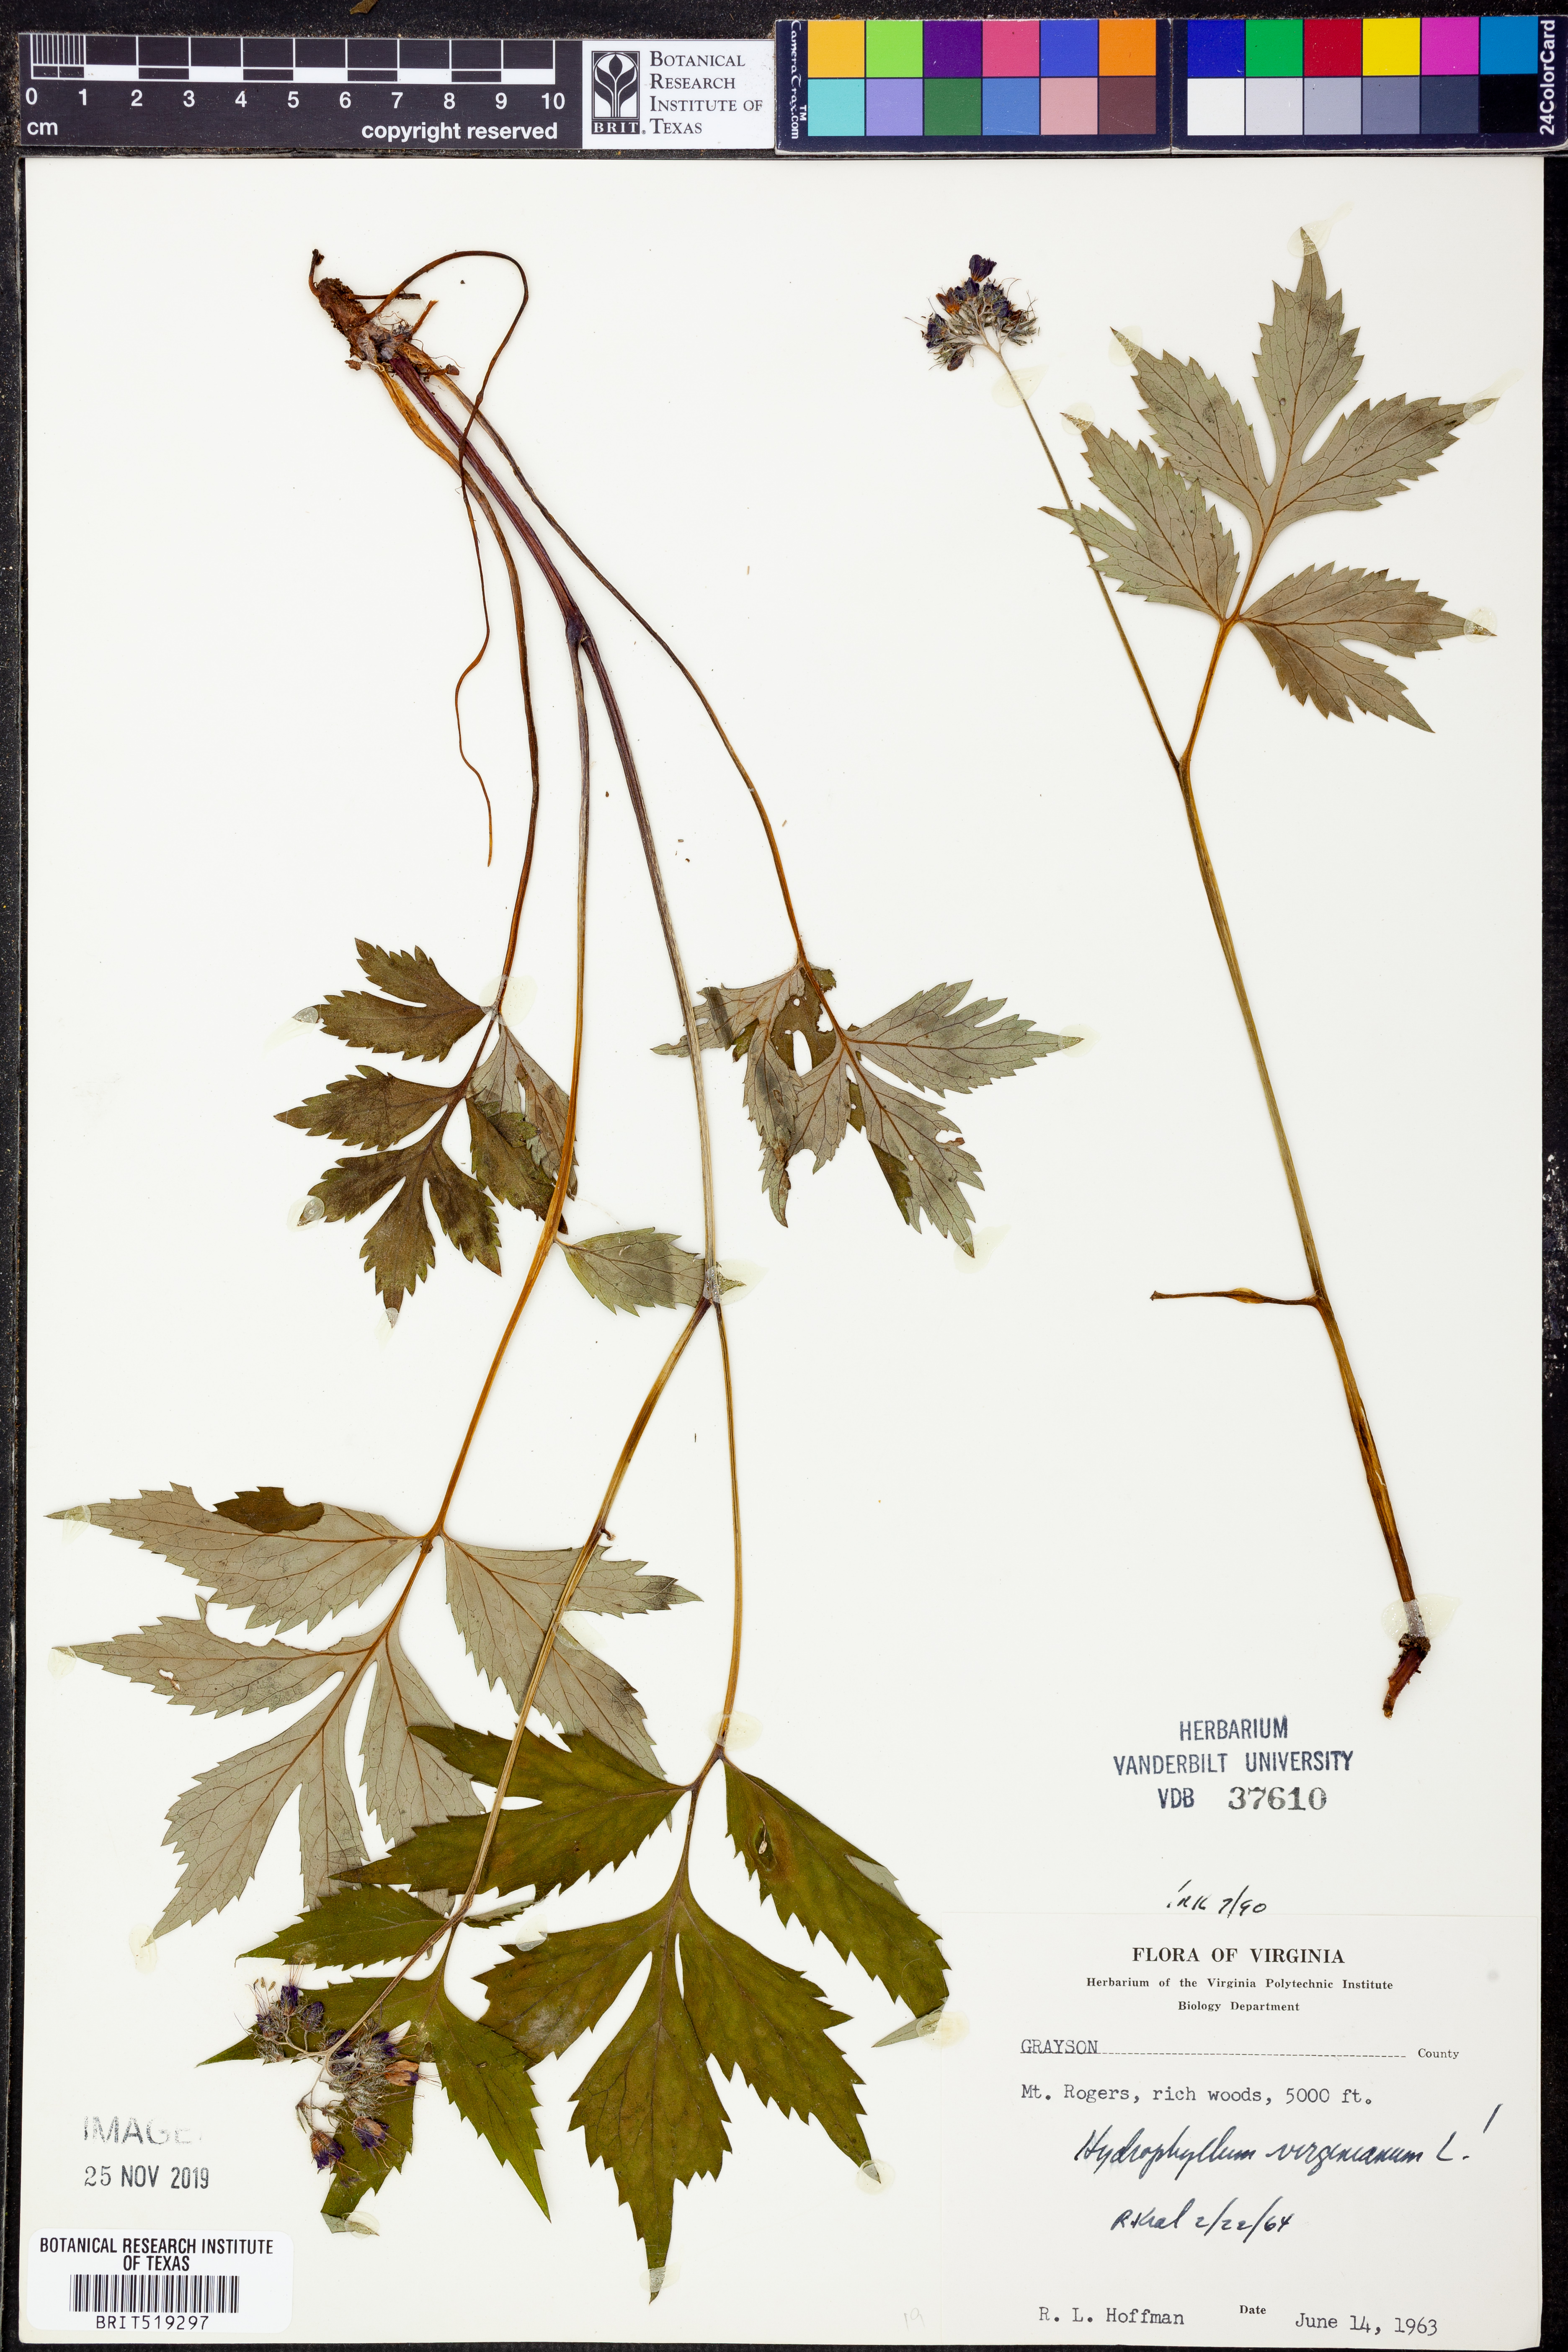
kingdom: Plantae
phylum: Tracheophyta
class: Magnoliopsida
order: Boraginales
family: Hydrophyllaceae
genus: Hydrophyllum
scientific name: Hydrophyllum virginianum
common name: Virginia waterleaf
